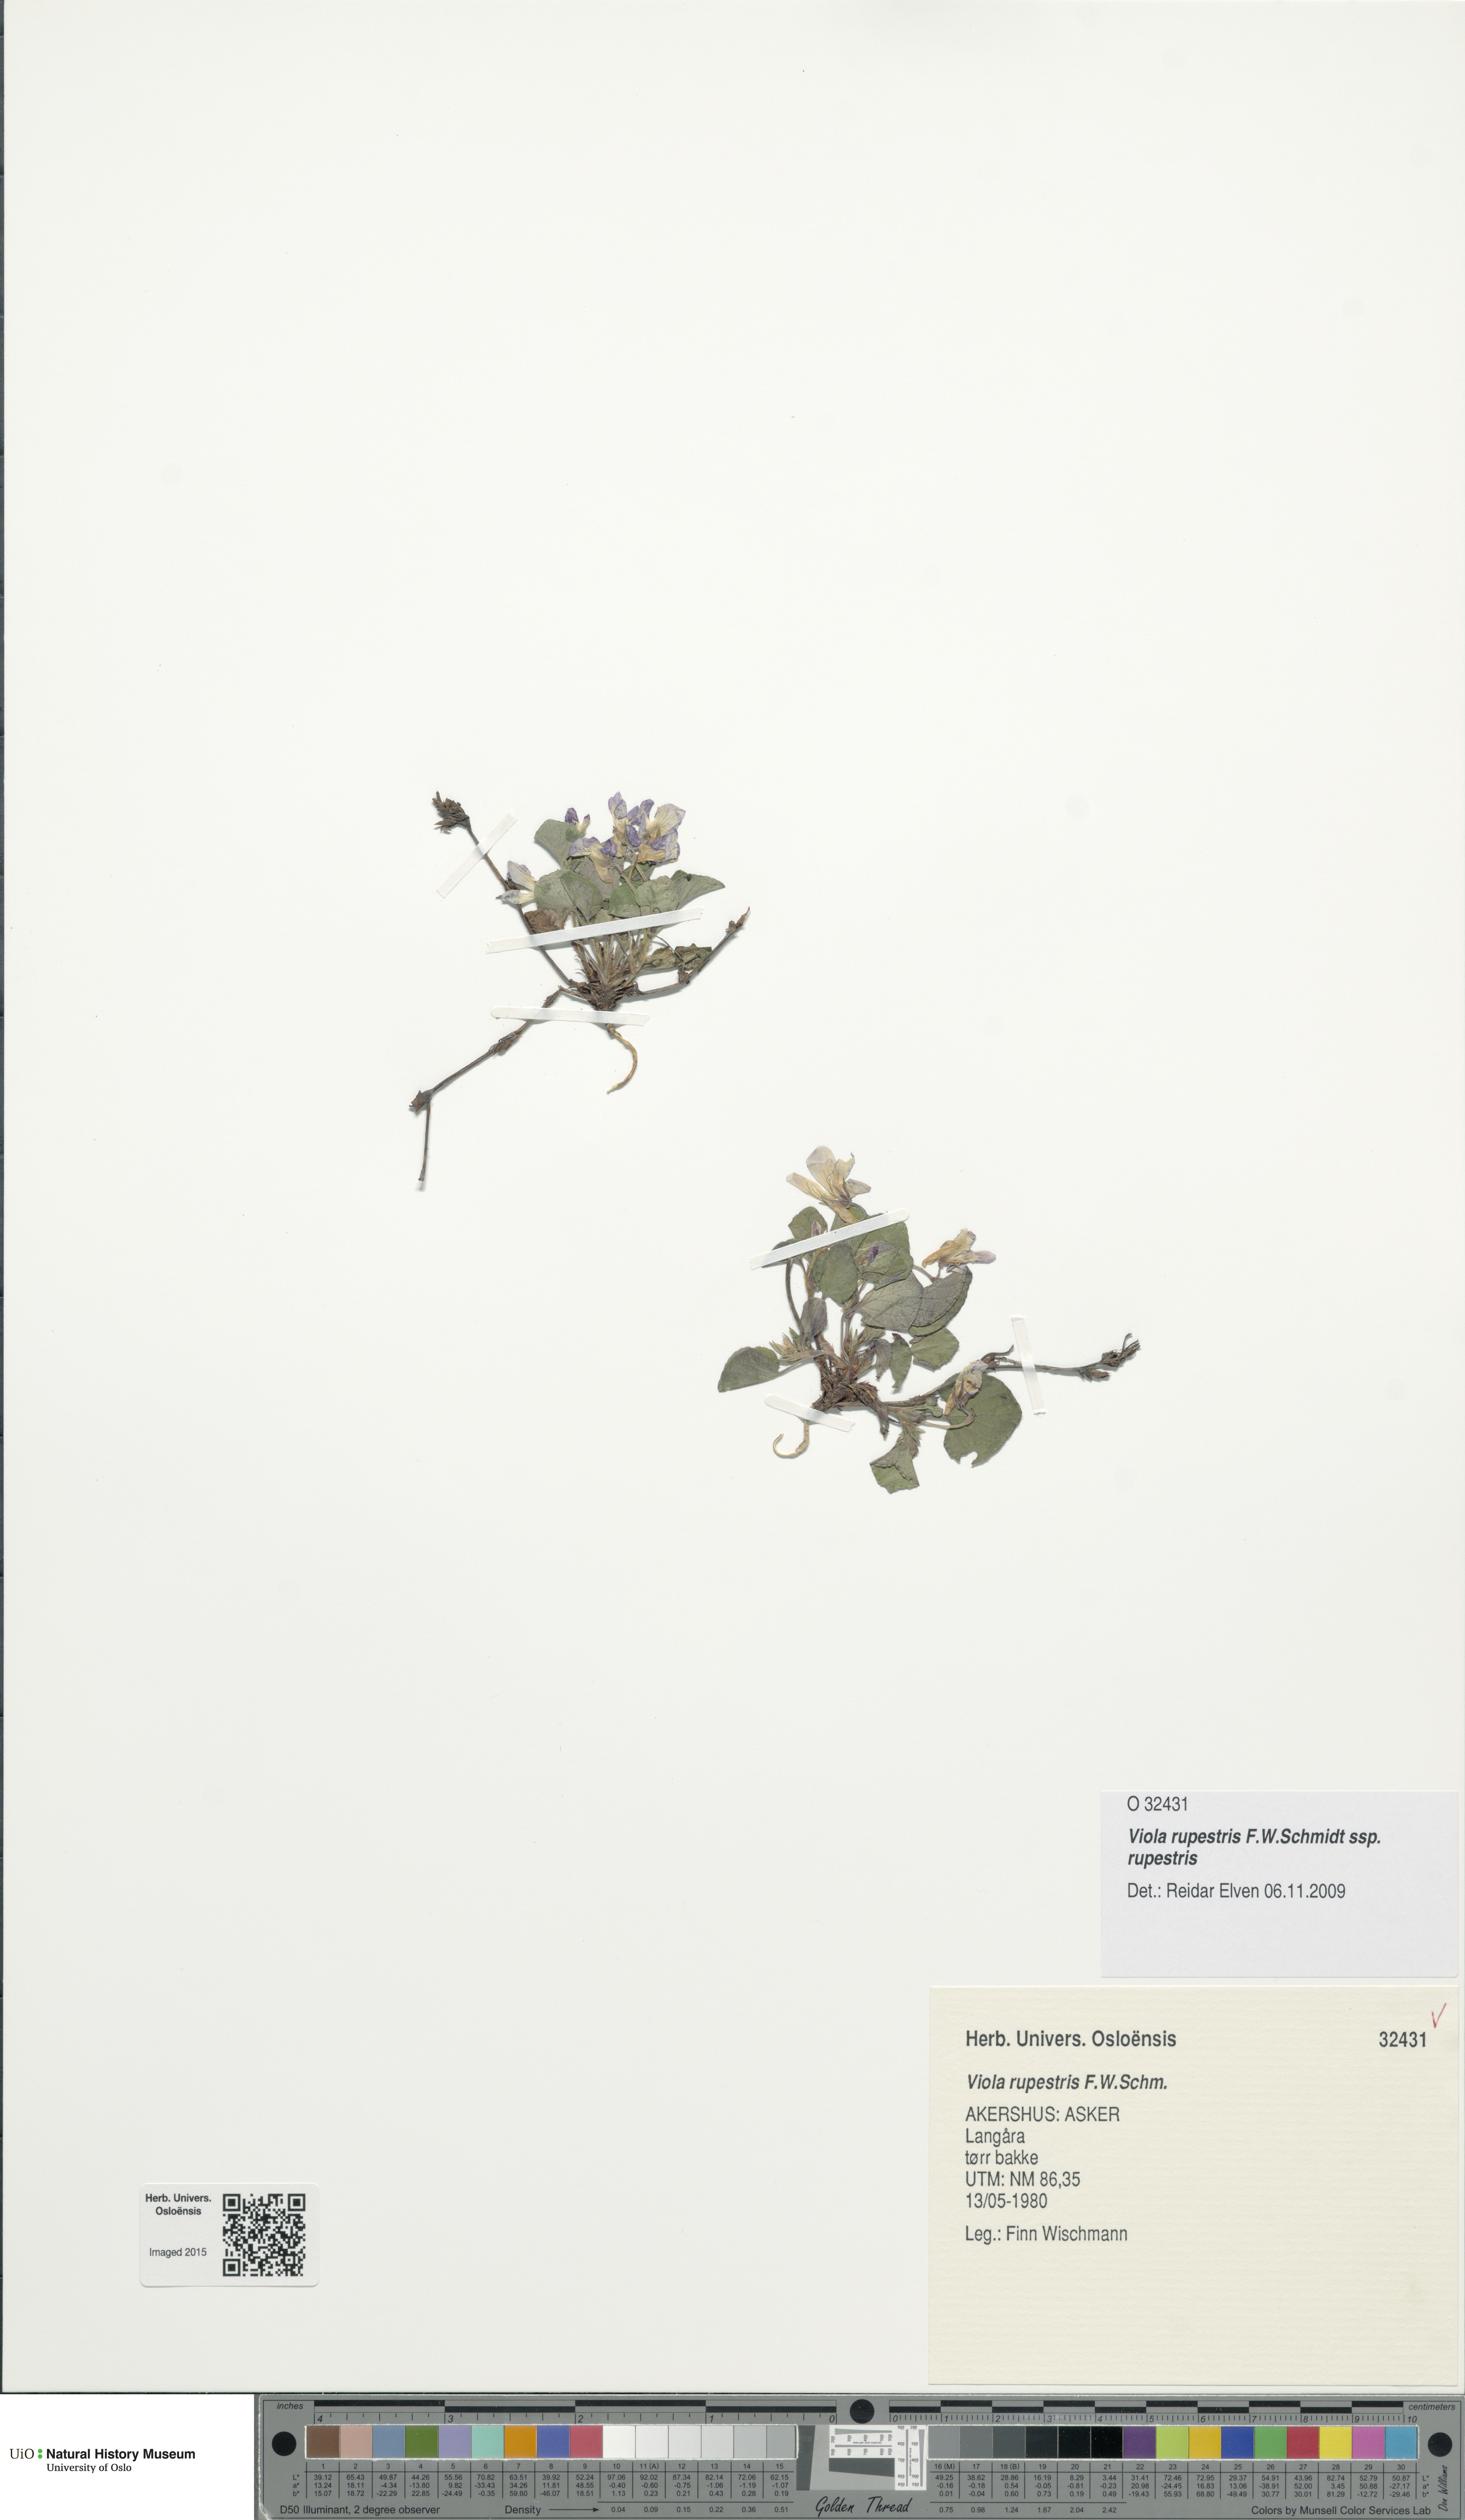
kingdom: Plantae
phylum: Tracheophyta
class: Magnoliopsida
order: Malpighiales
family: Violaceae
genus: Viola
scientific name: Viola rupestris
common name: Teesdale violet
